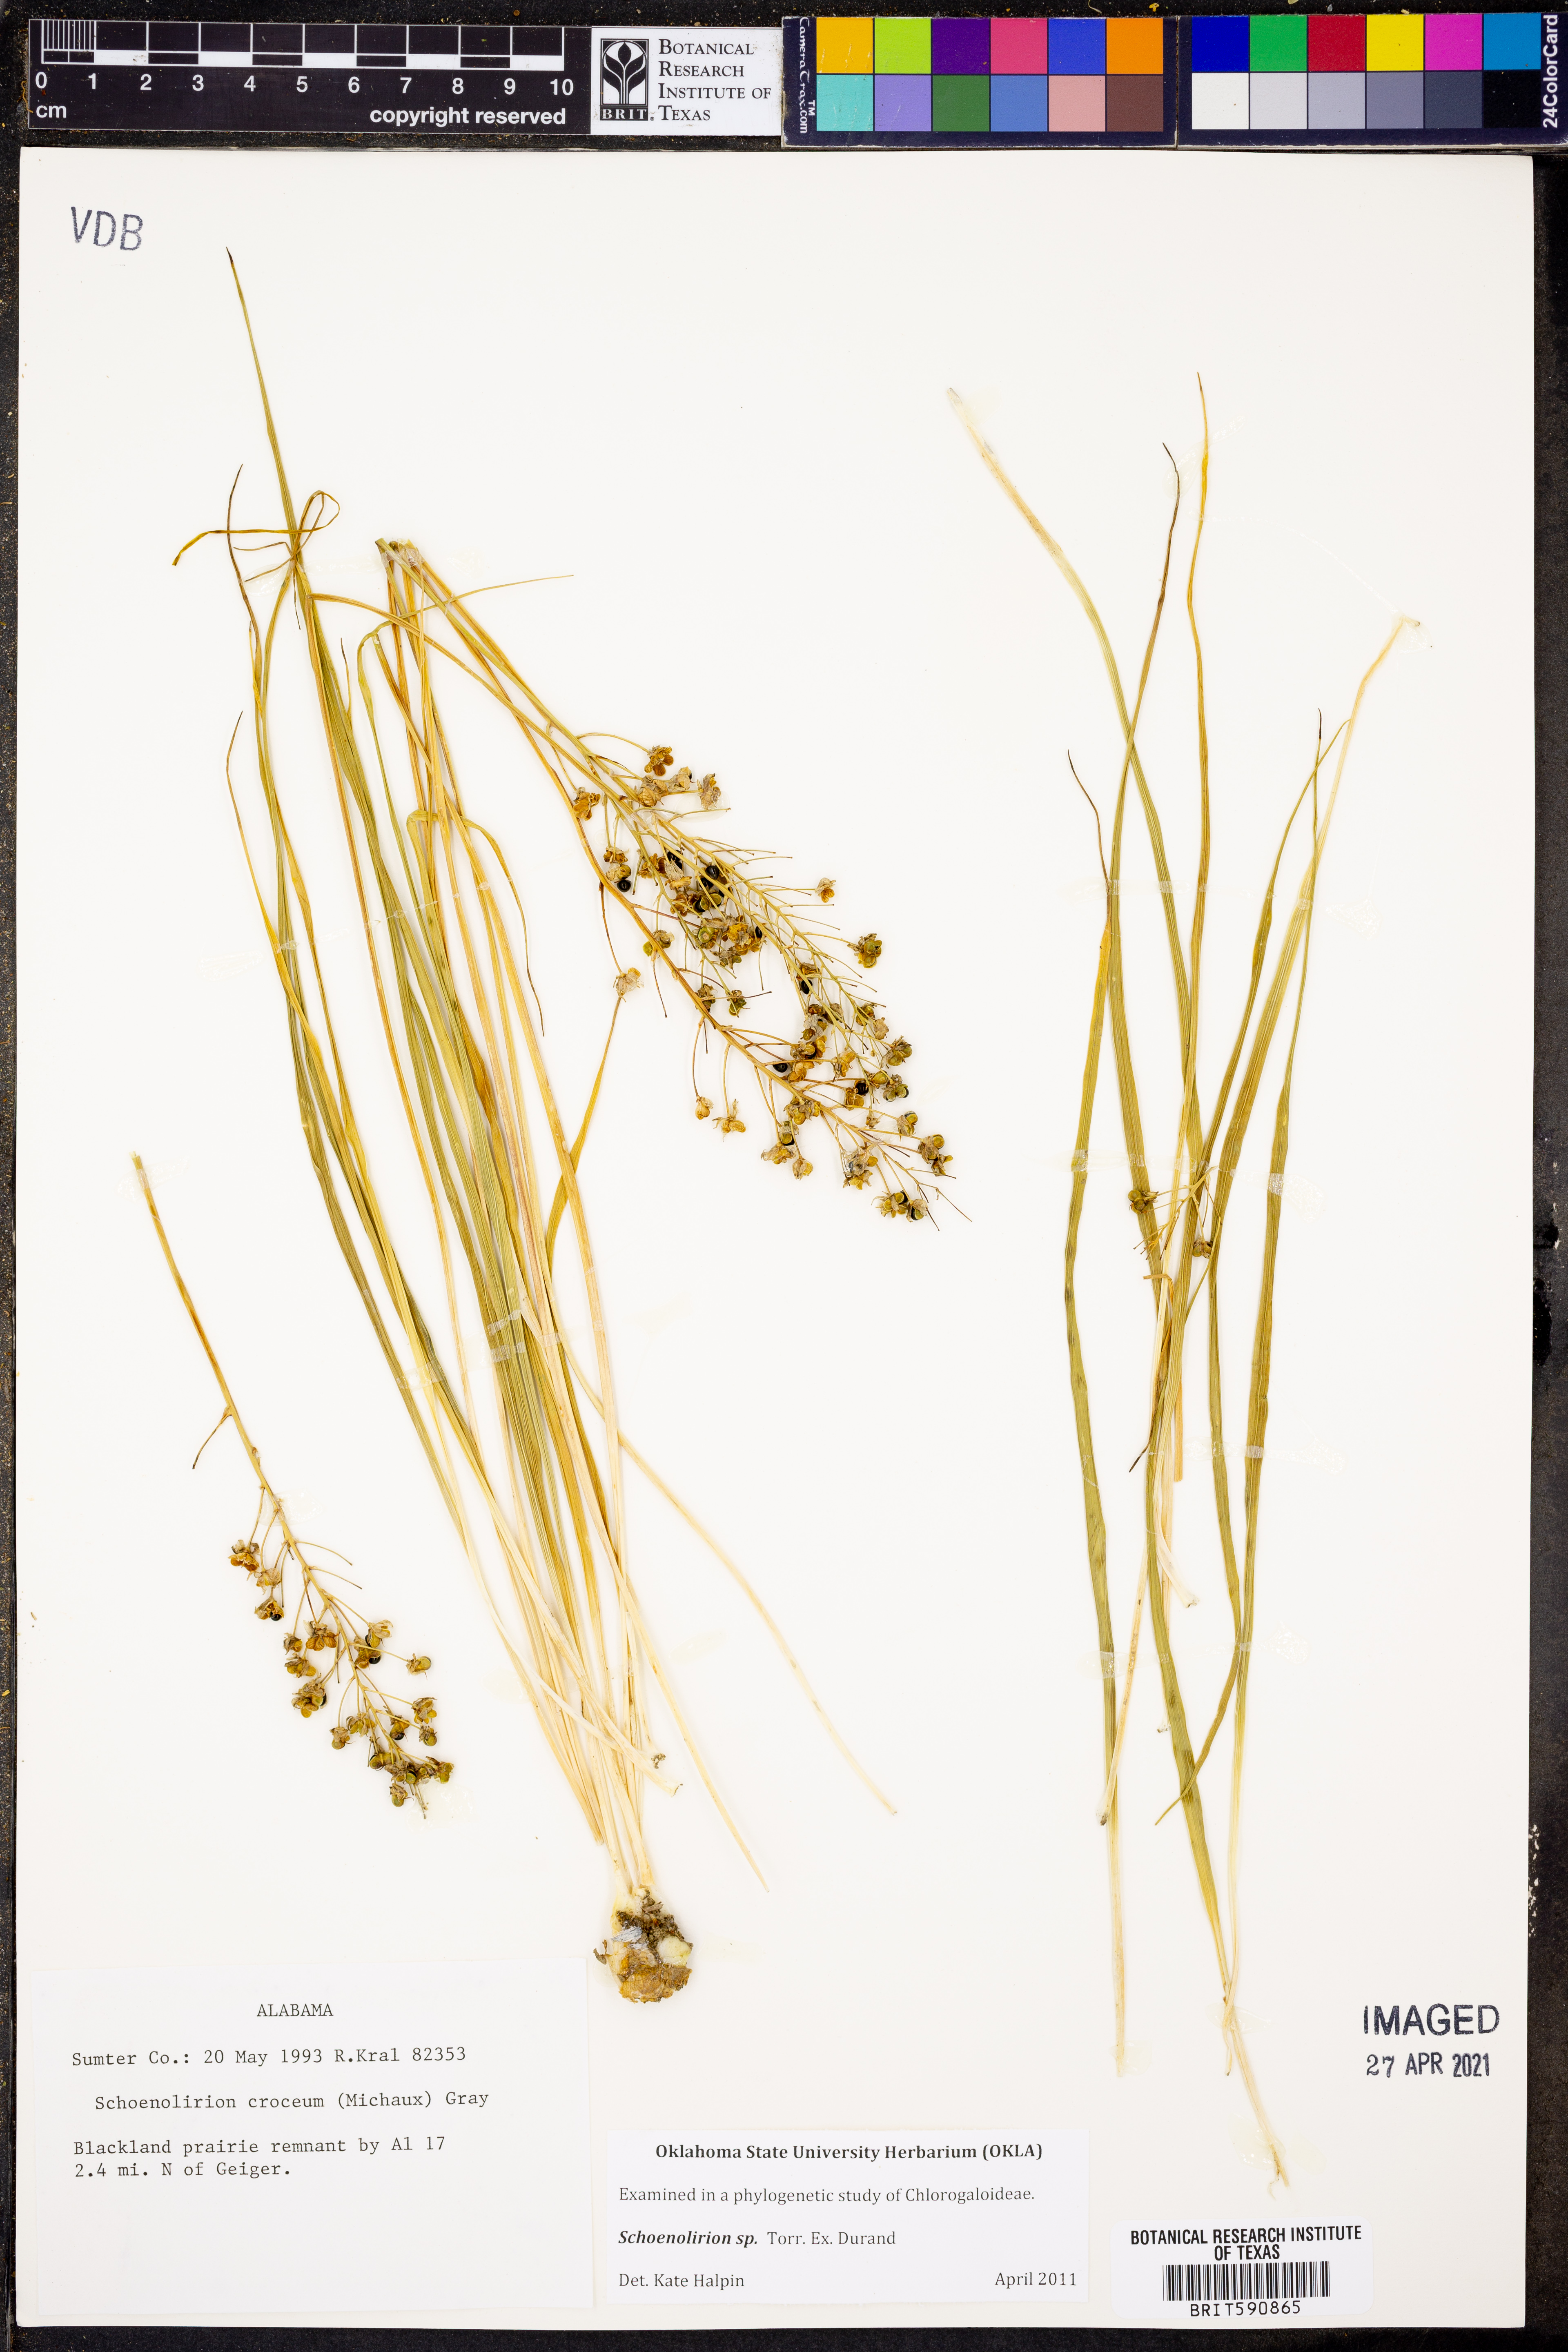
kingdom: Plantae
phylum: Tracheophyta
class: Liliopsida
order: Asparagales
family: Asparagaceae
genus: Schoenolirion
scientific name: Schoenolirion
